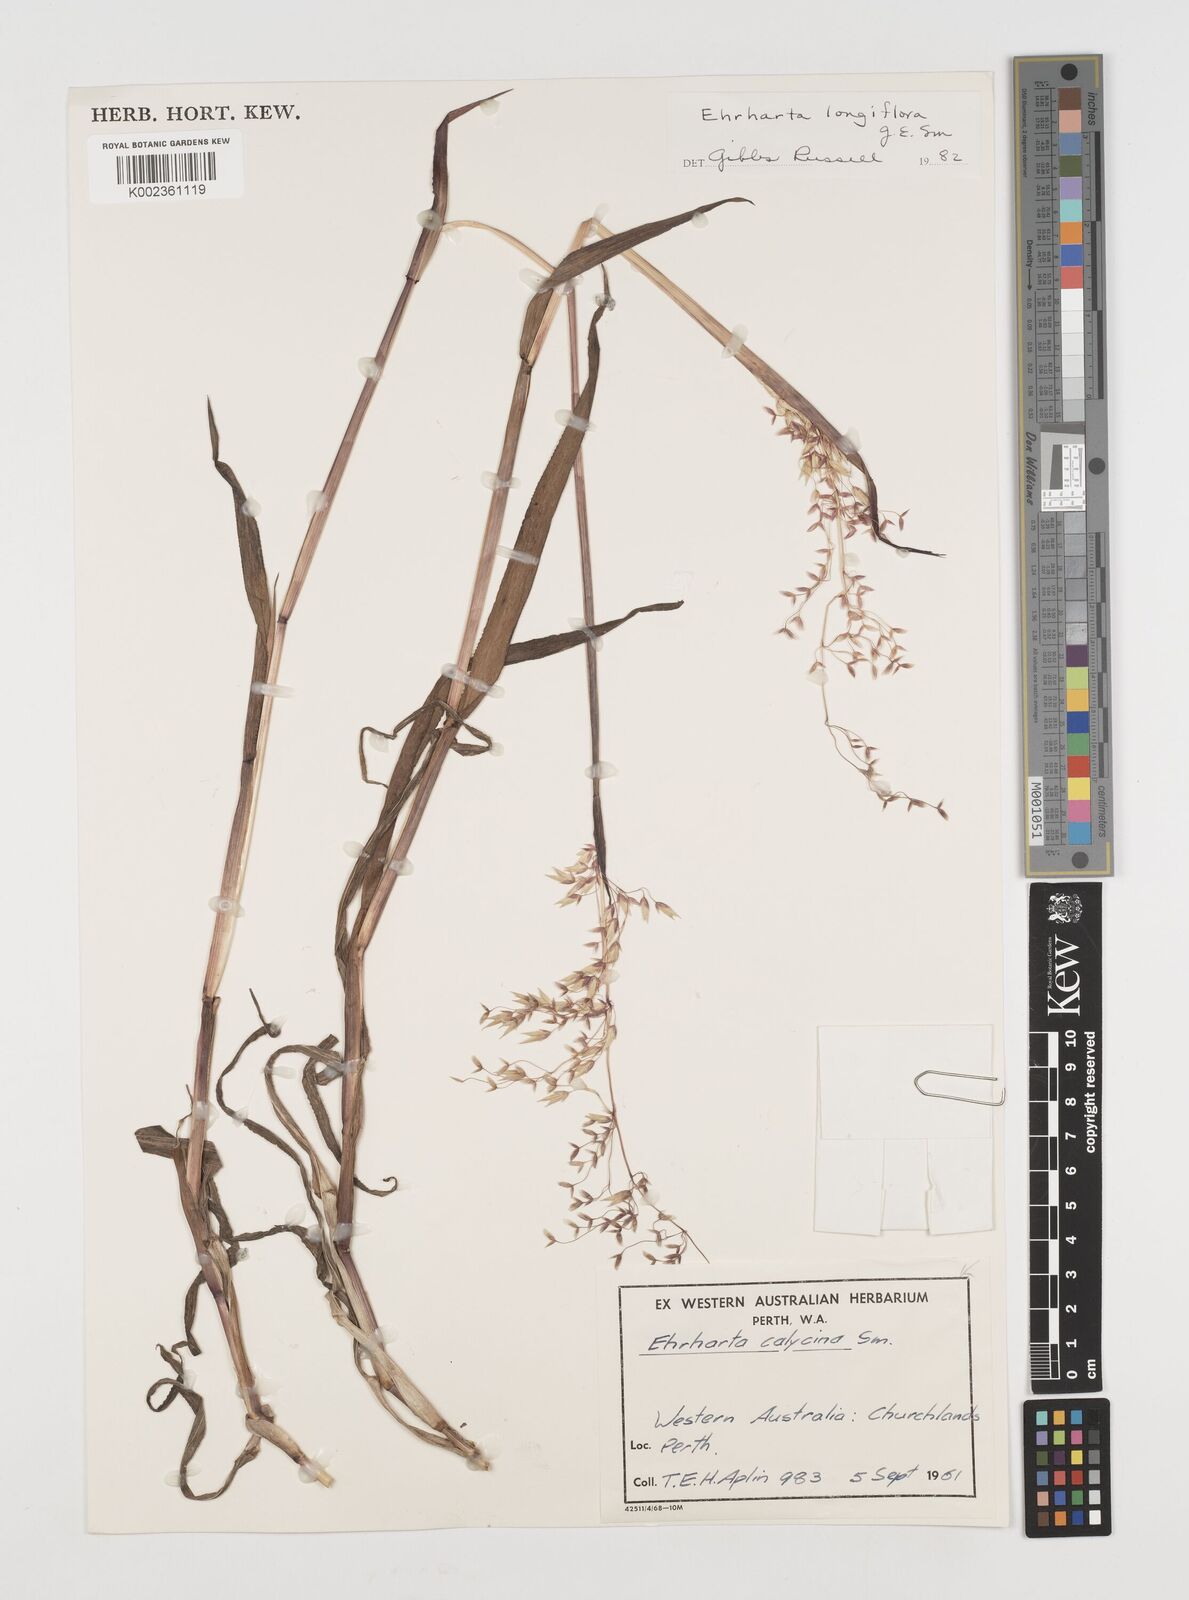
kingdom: Plantae
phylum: Tracheophyta
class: Liliopsida
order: Poales
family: Poaceae
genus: Ehrharta
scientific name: Ehrharta longiflora
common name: Longflowered veldtgrass
